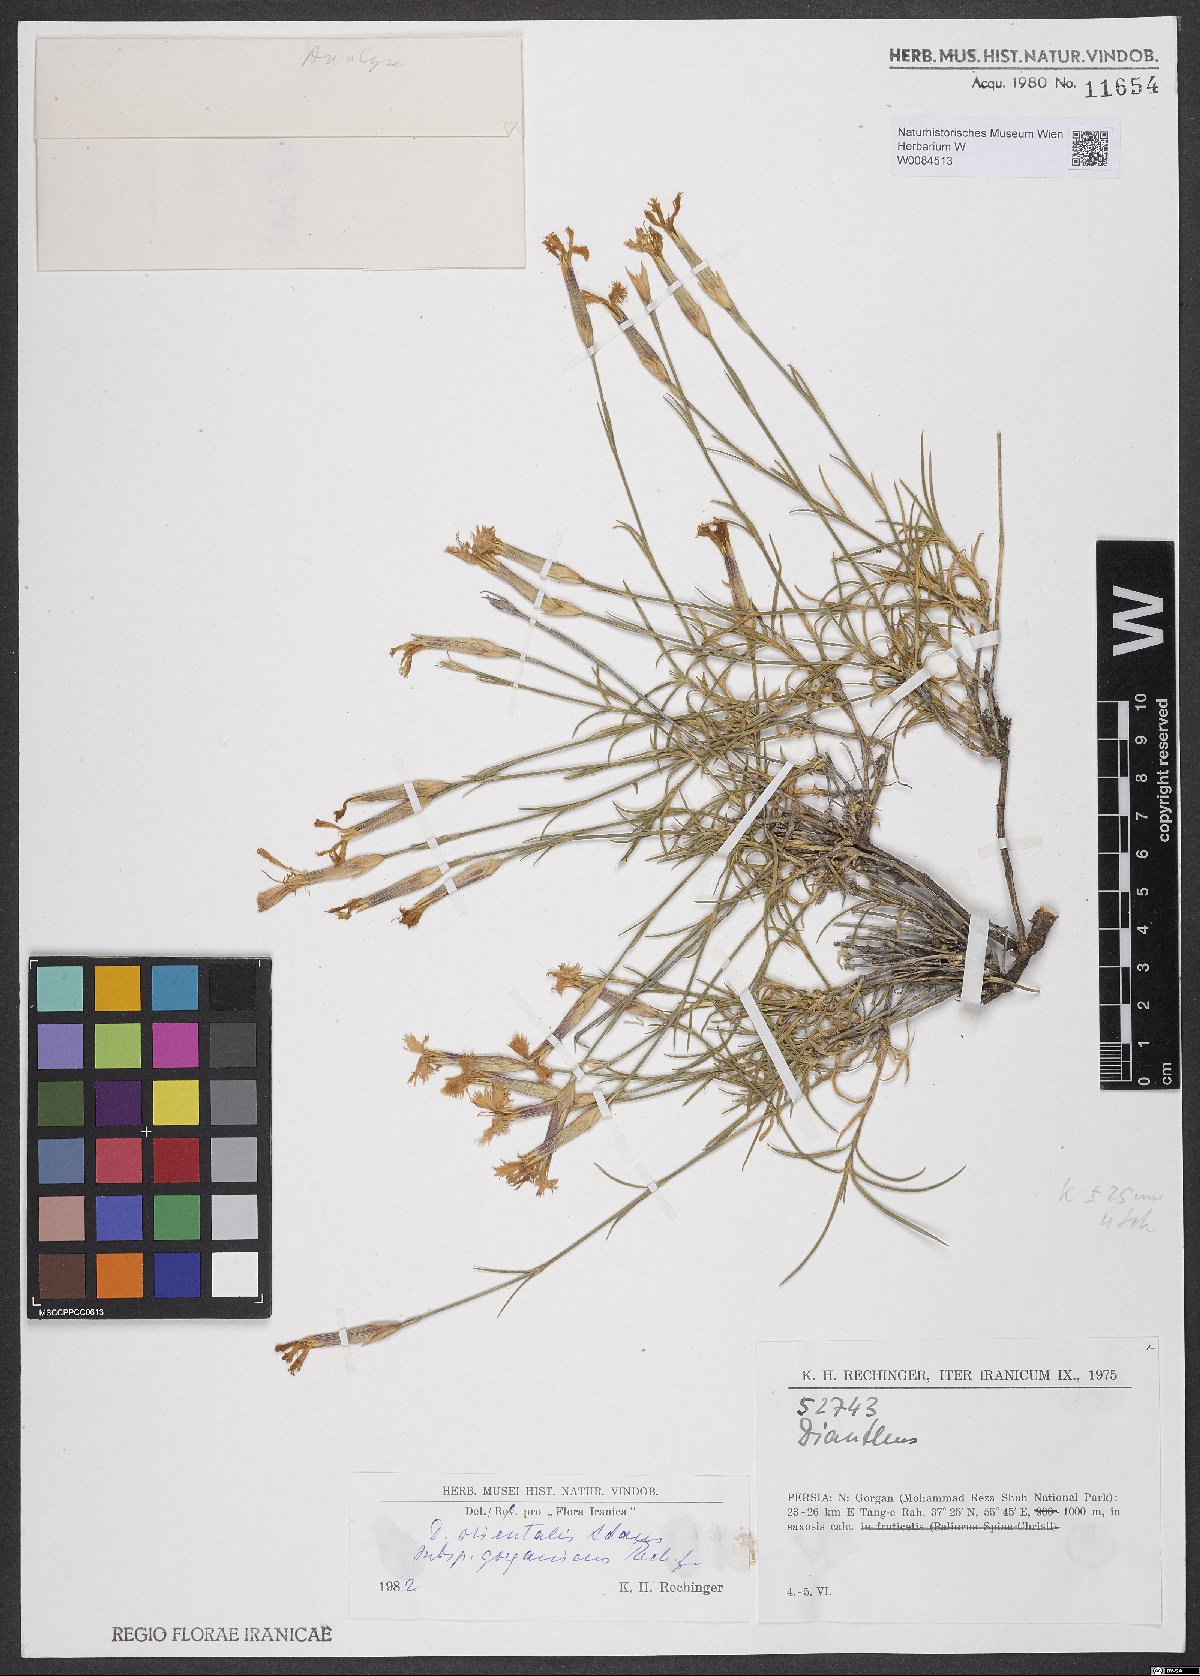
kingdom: Plantae
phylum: Tracheophyta
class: Magnoliopsida
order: Caryophyllales
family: Caryophyllaceae
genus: Dianthus
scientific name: Dianthus orientalis
